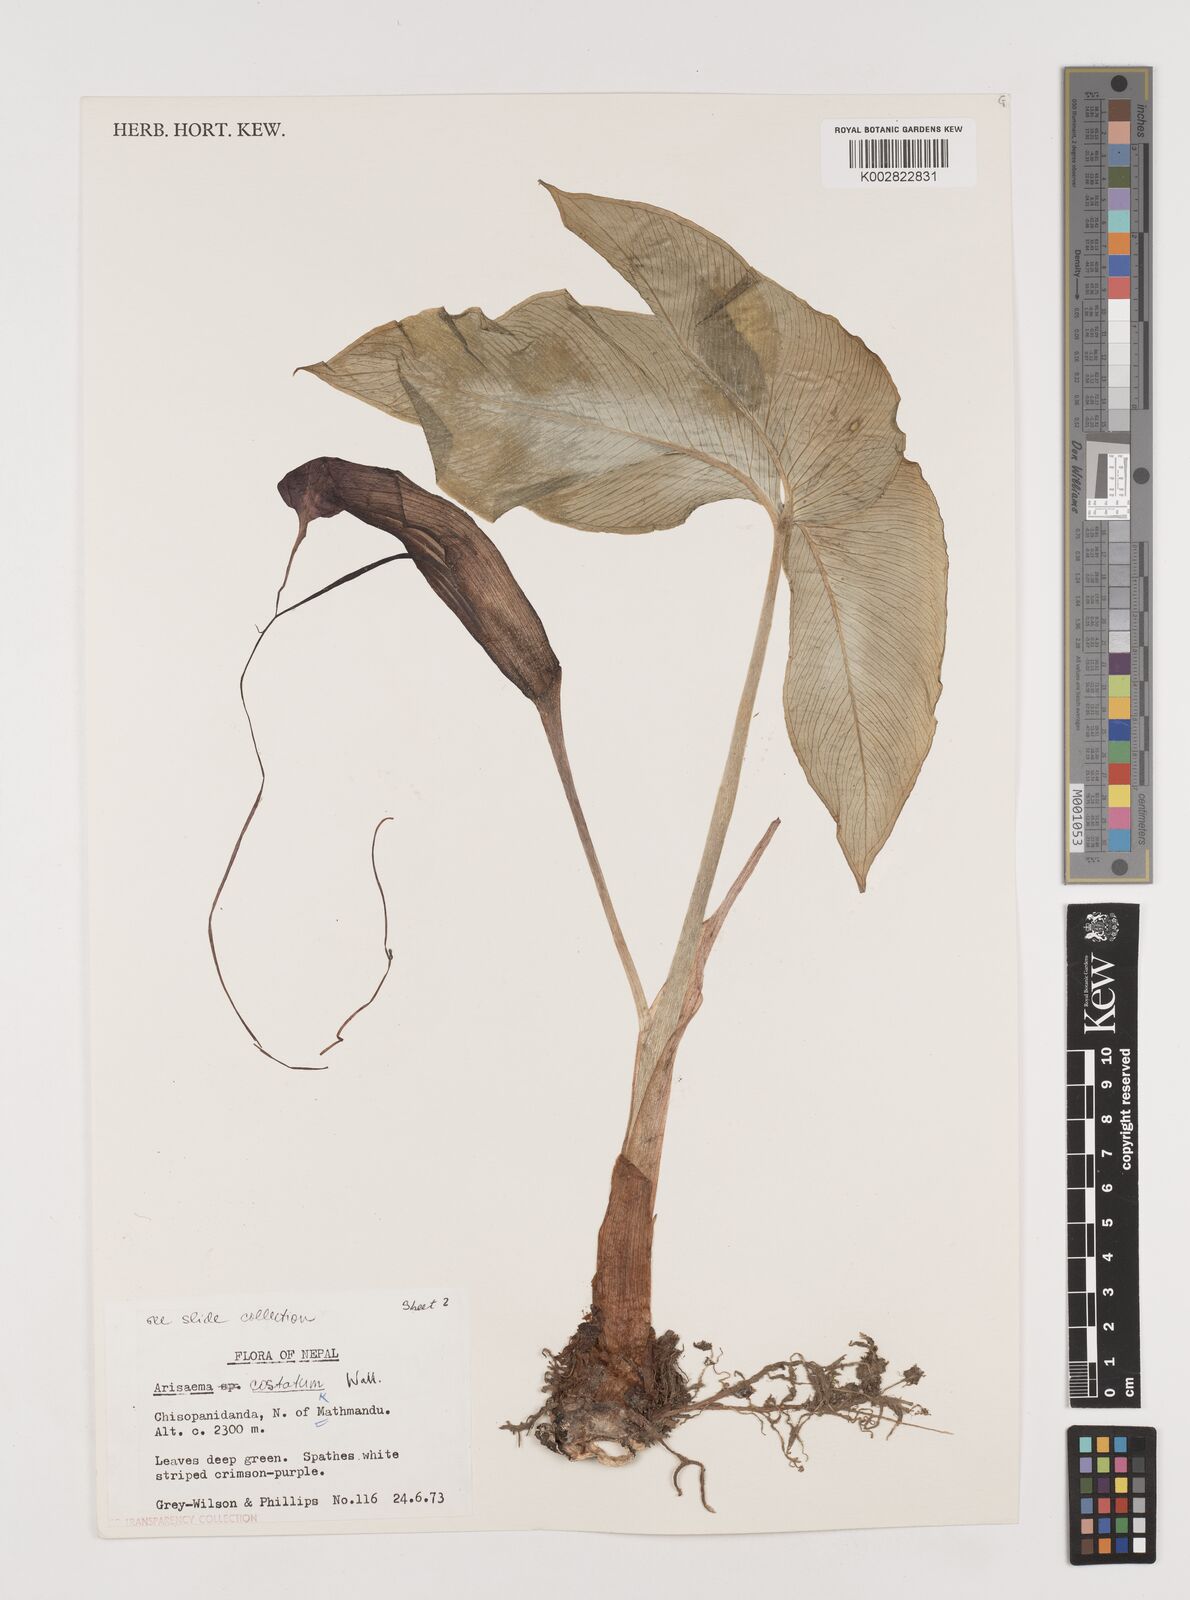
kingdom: Plantae
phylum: Tracheophyta
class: Liliopsida
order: Alismatales
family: Araceae
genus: Arisaema
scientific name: Arisaema costatum
